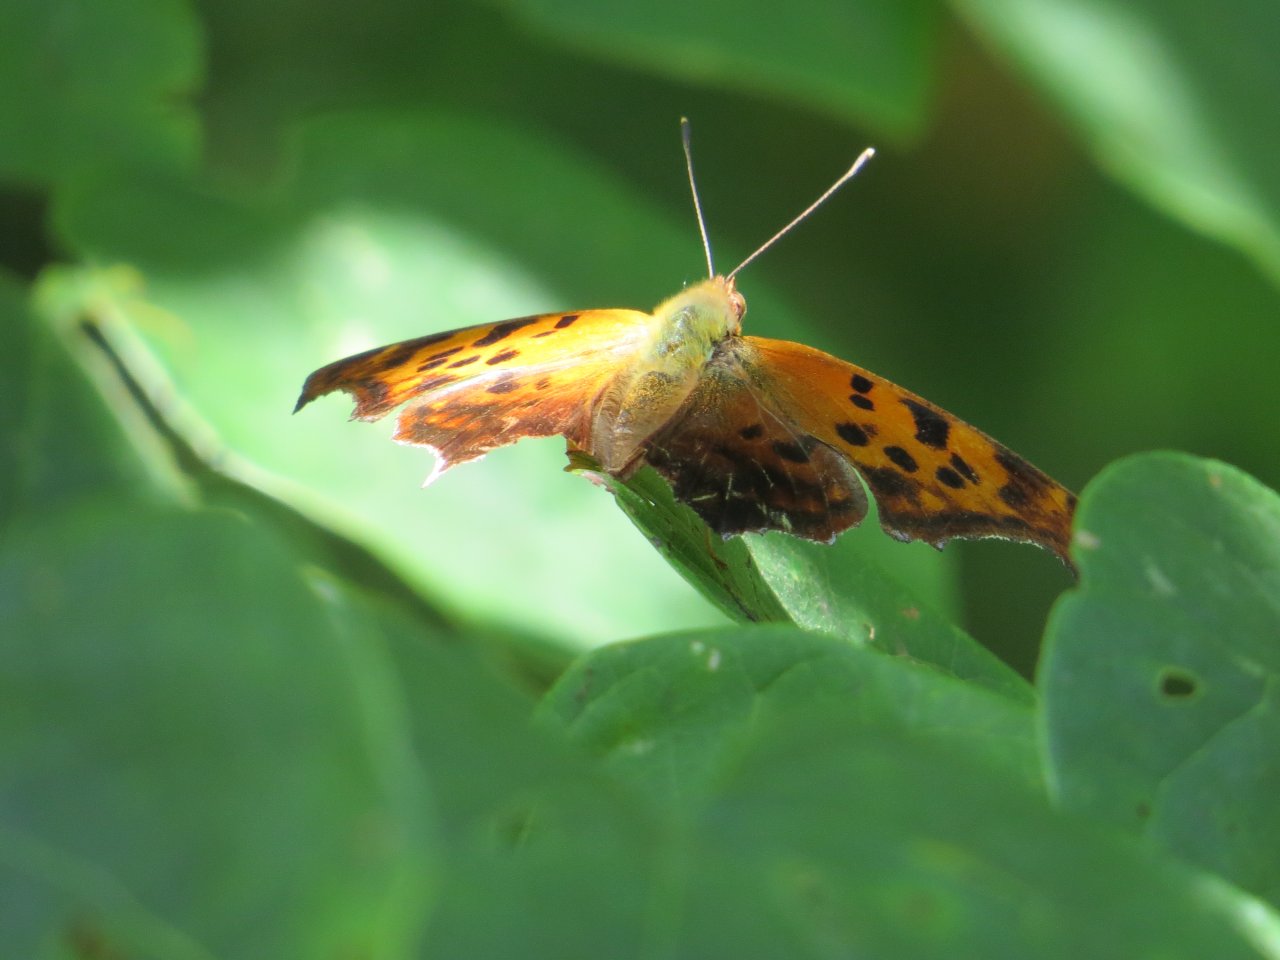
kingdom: Animalia
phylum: Arthropoda
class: Insecta
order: Lepidoptera
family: Nymphalidae
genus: Polygonia
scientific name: Polygonia interrogationis
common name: Question Mark
